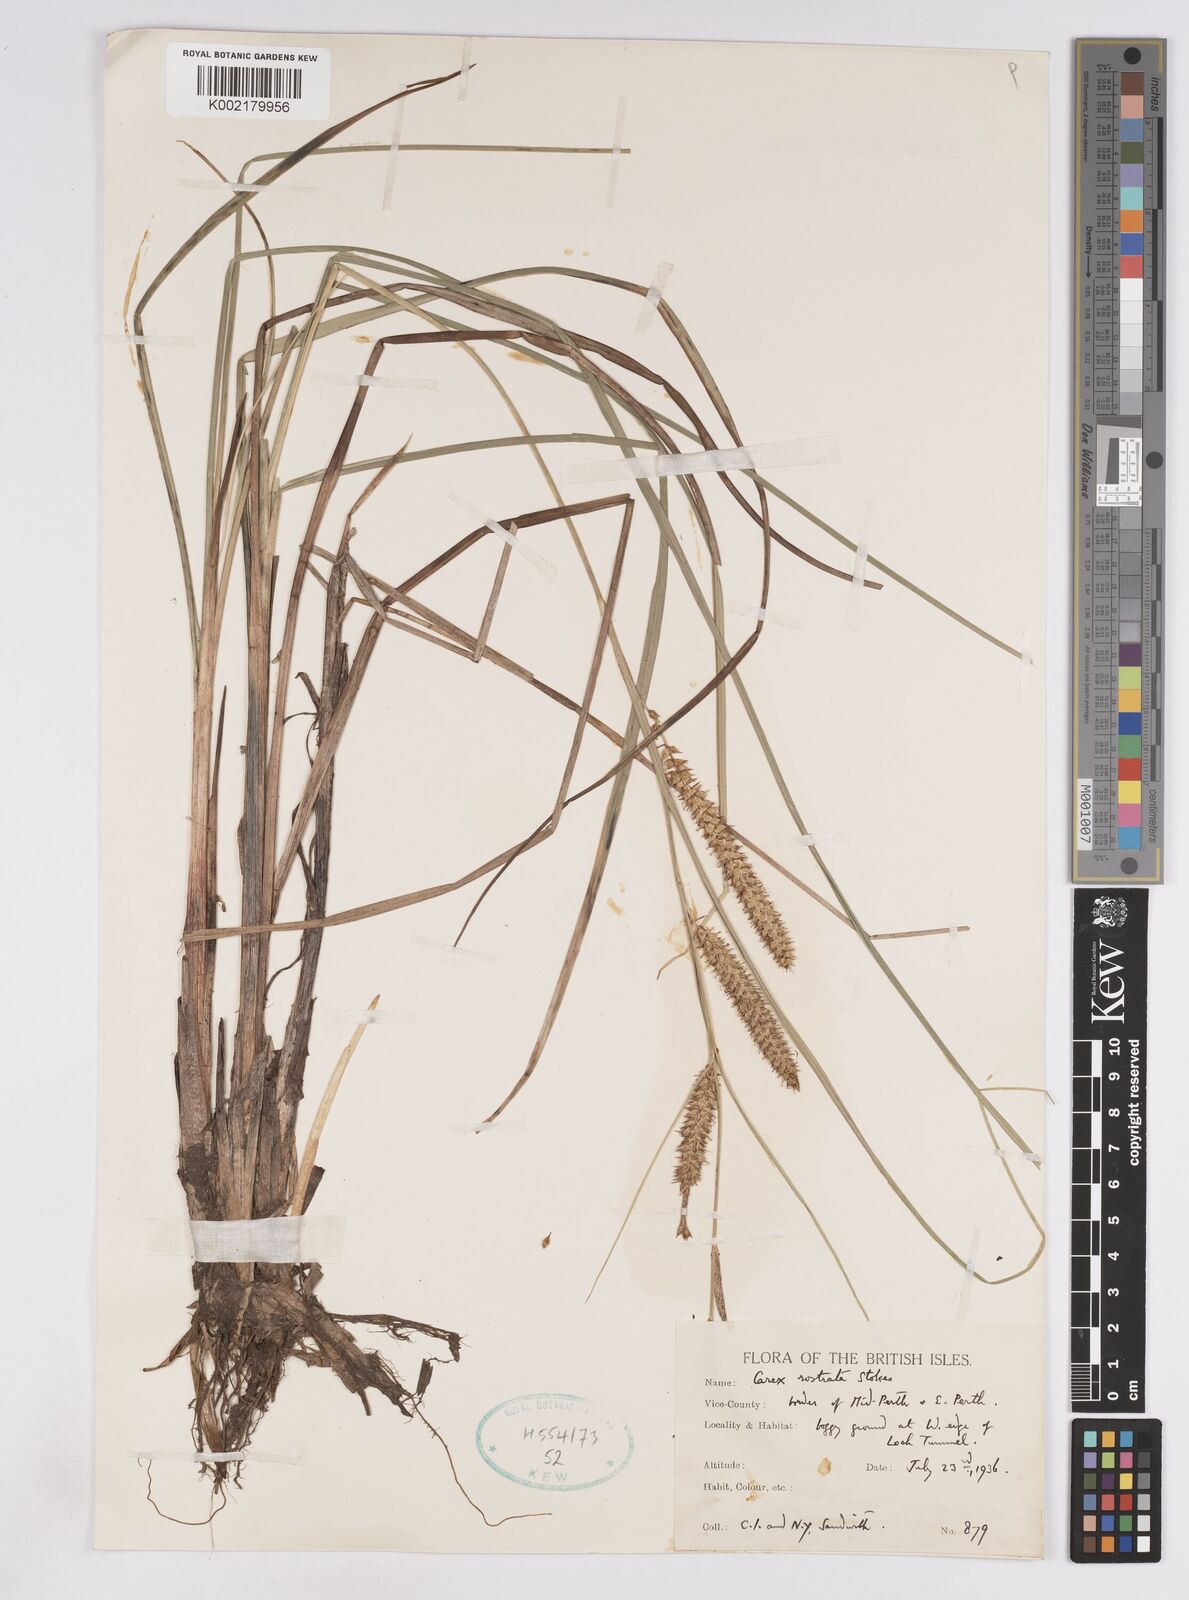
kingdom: Plantae
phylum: Tracheophyta
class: Liliopsida
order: Poales
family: Cyperaceae
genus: Carex
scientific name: Carex utriculata
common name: Beaked sedge
